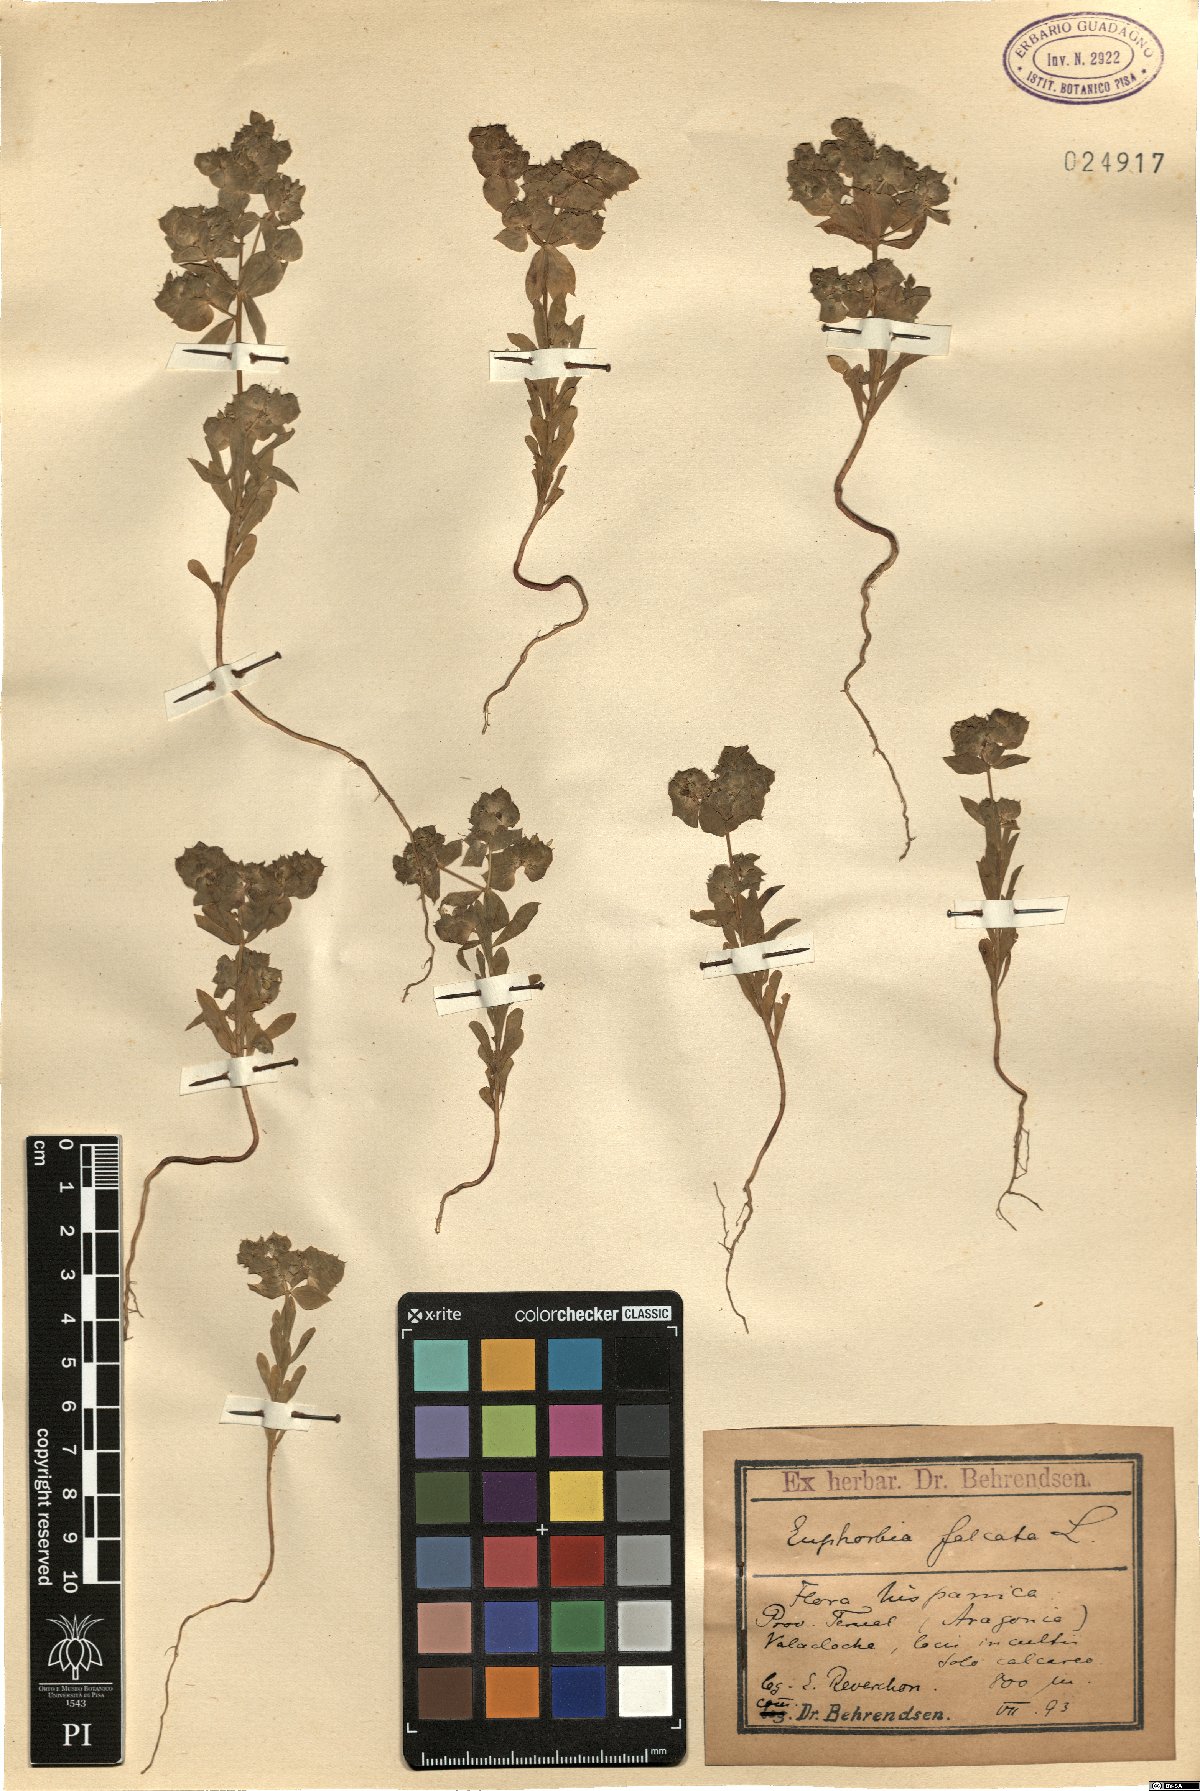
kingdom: Plantae
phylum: Tracheophyta
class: Magnoliopsida
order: Malpighiales
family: Euphorbiaceae
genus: Euphorbia
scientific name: Euphorbia falcata
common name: Sickle spurge
